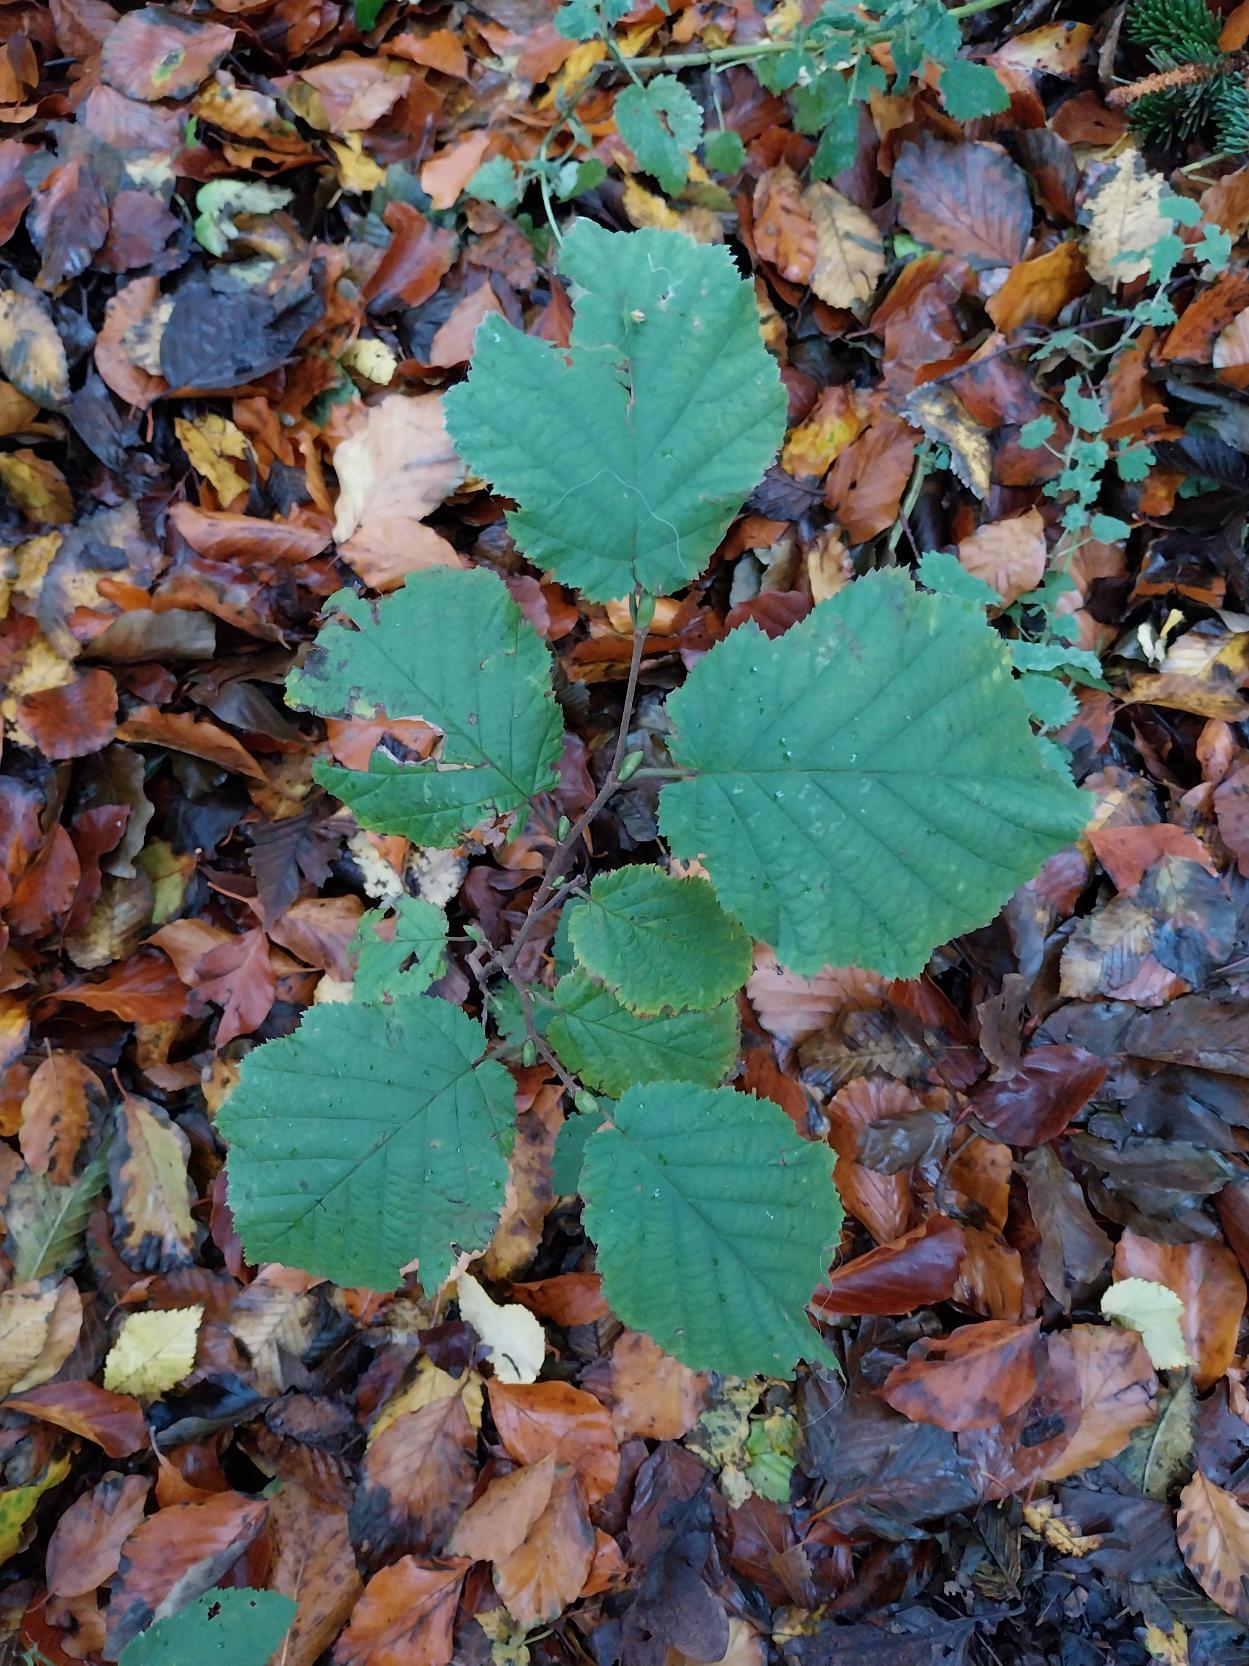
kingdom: Plantae
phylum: Tracheophyta
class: Magnoliopsida
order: Fagales
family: Betulaceae
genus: Corylus
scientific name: Corylus avellana
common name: Hassel
